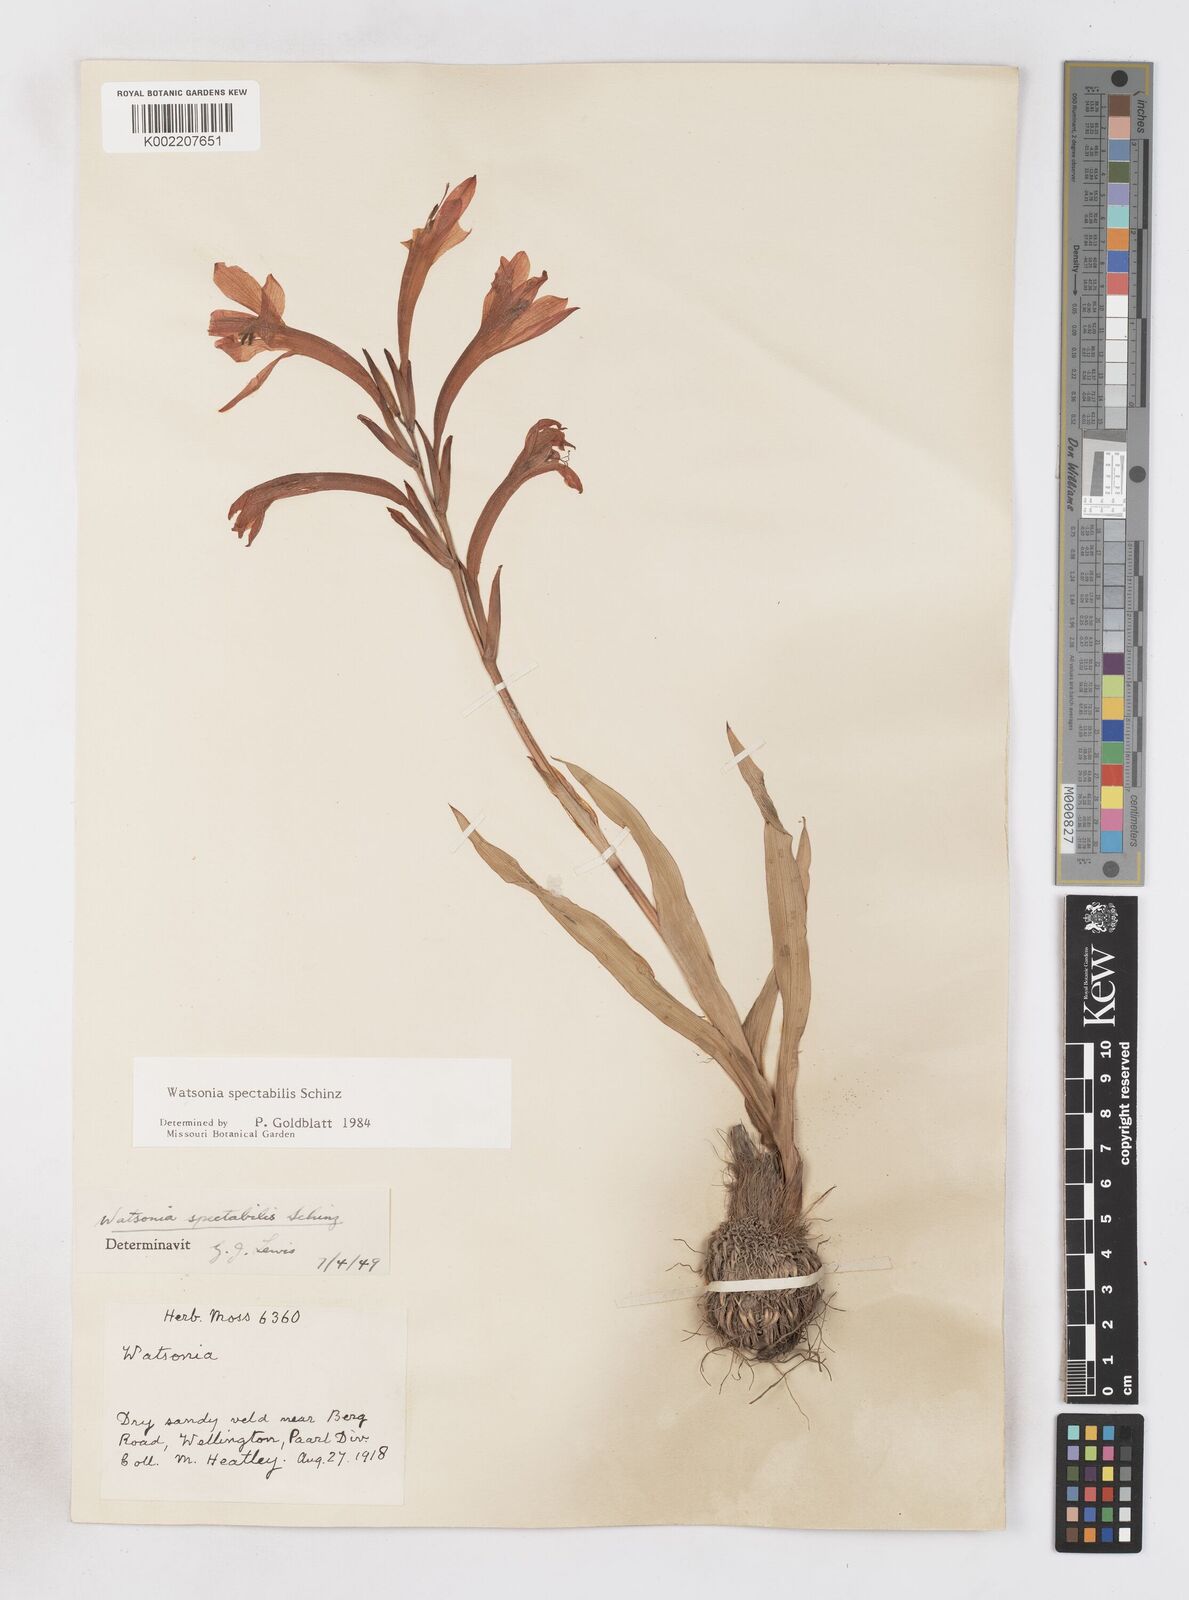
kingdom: Plantae
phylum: Tracheophyta
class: Liliopsida
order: Asparagales
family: Iridaceae
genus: Watsonia
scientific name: Watsonia spectabilis
